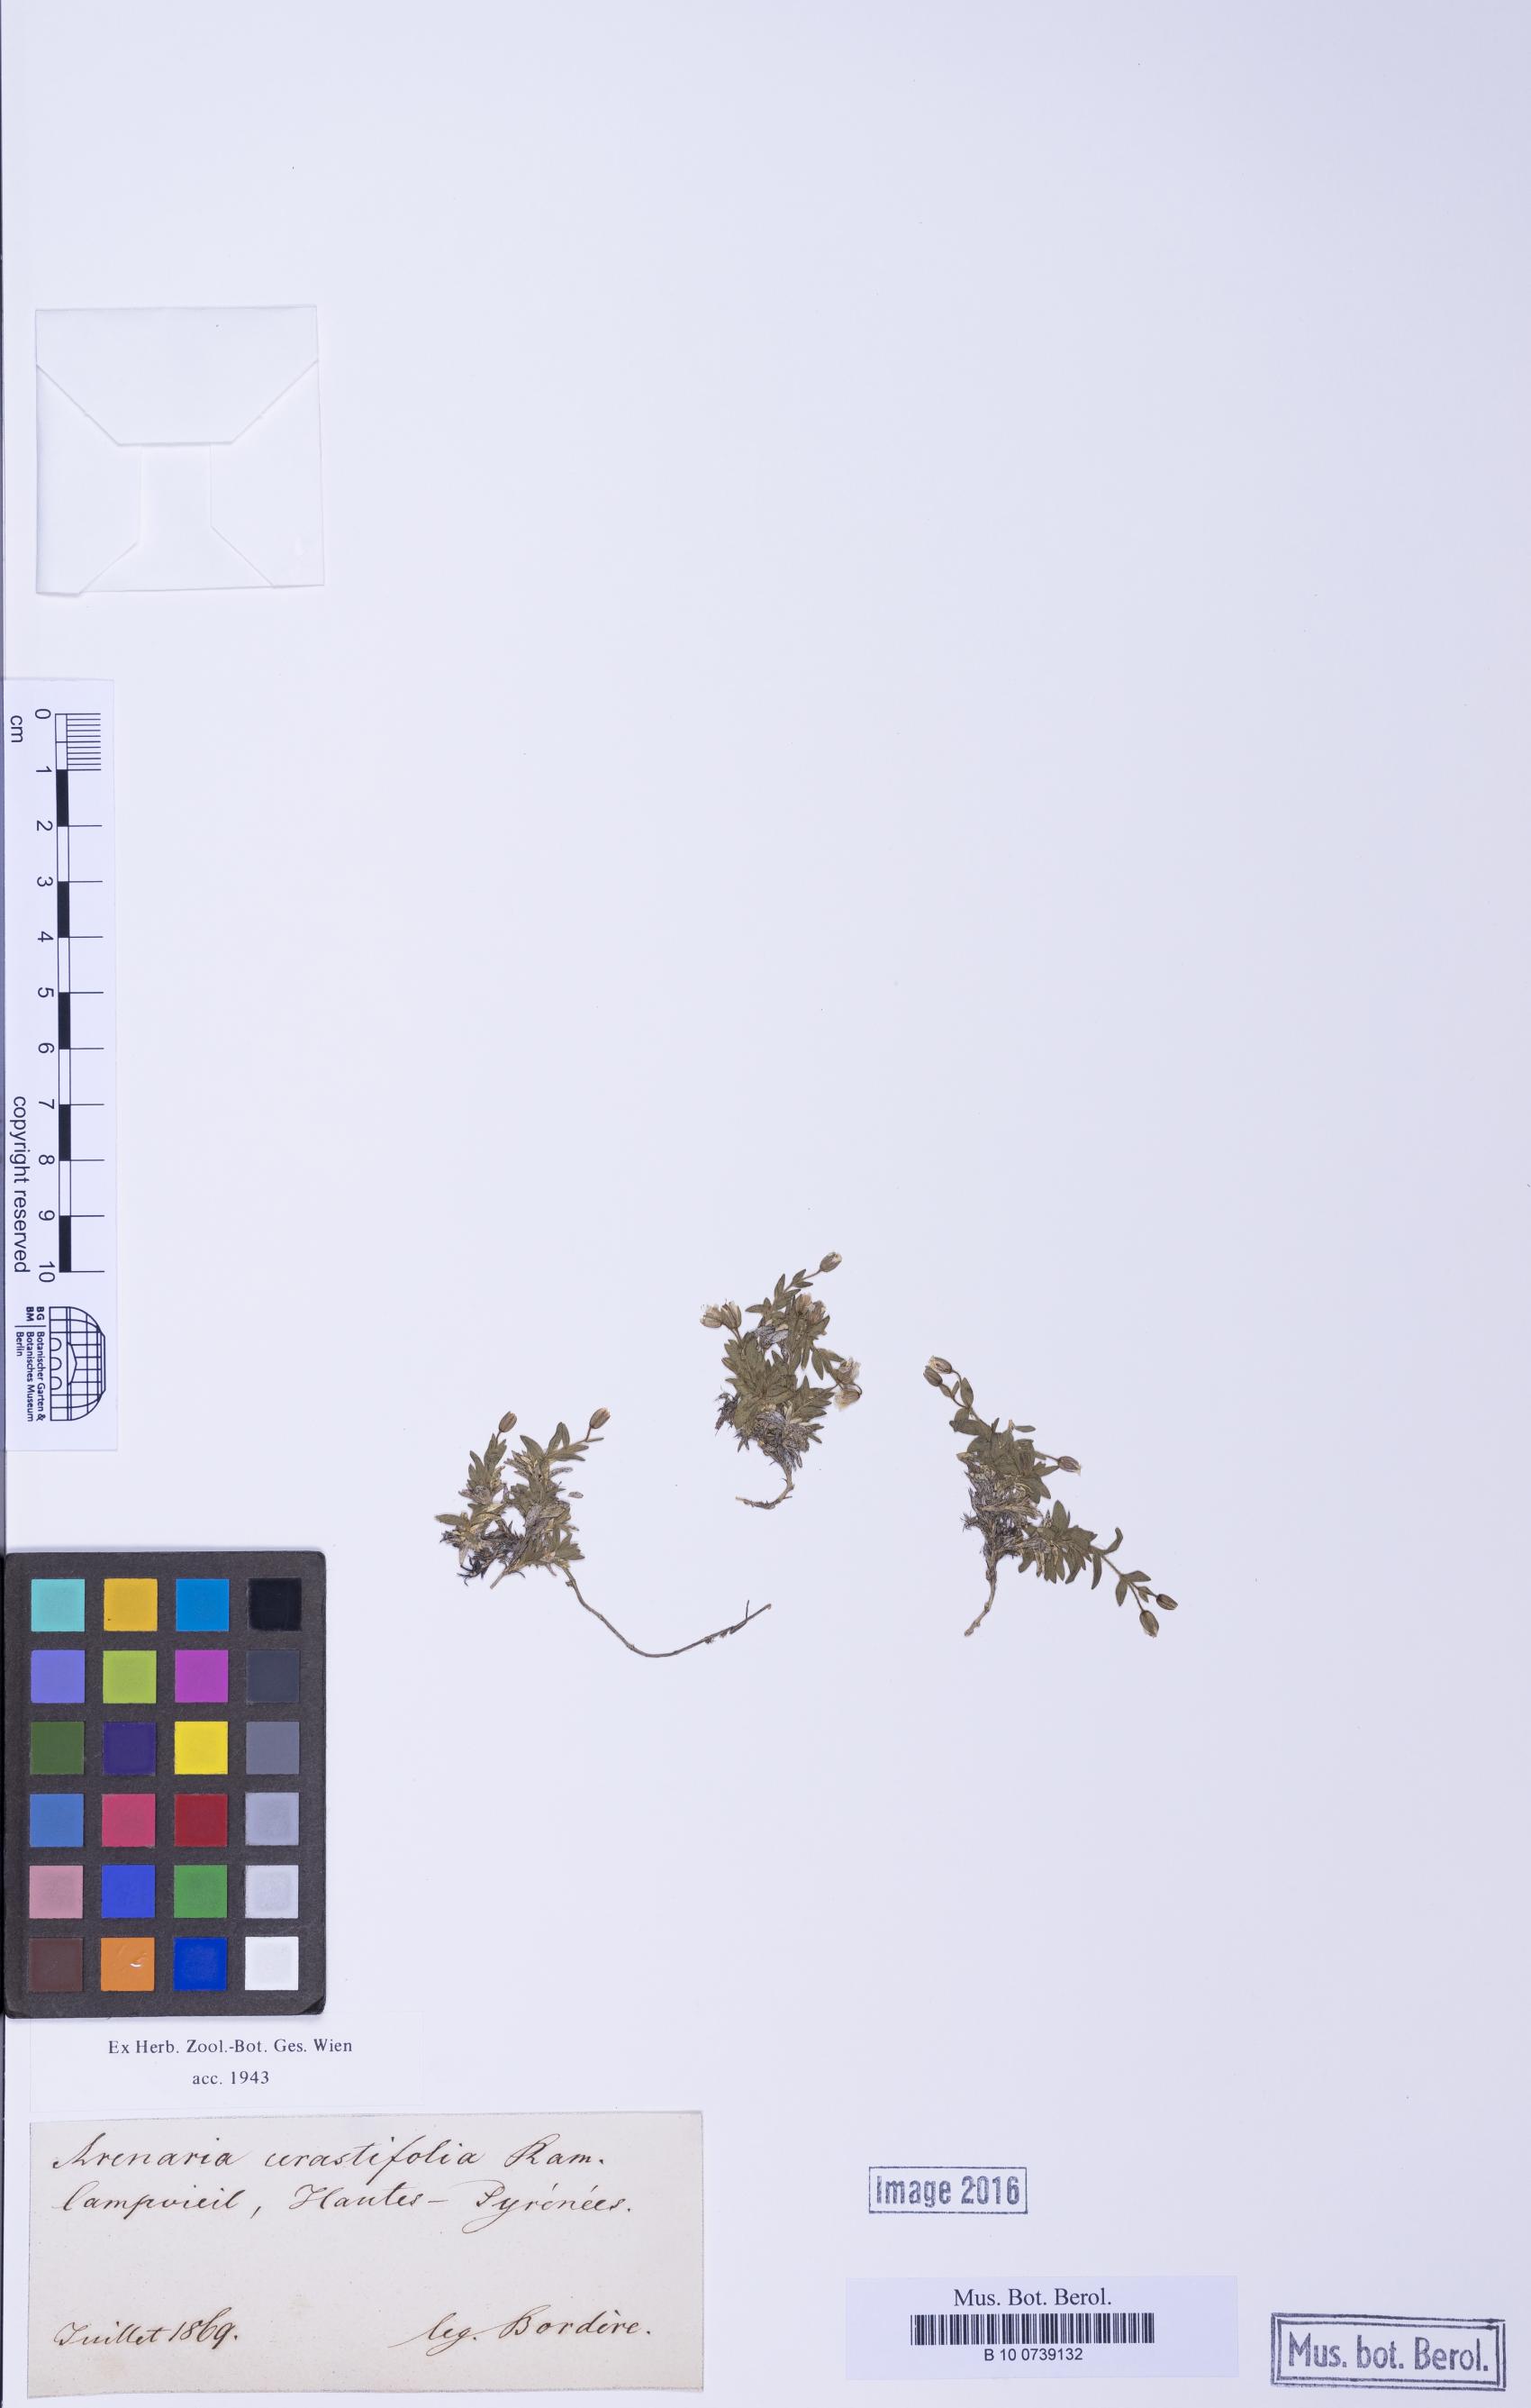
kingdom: Plantae
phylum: Tracheophyta
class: Magnoliopsida
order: Caryophyllales
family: Caryophyllaceae
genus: Facchinia
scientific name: Facchinia cerastiifolia
